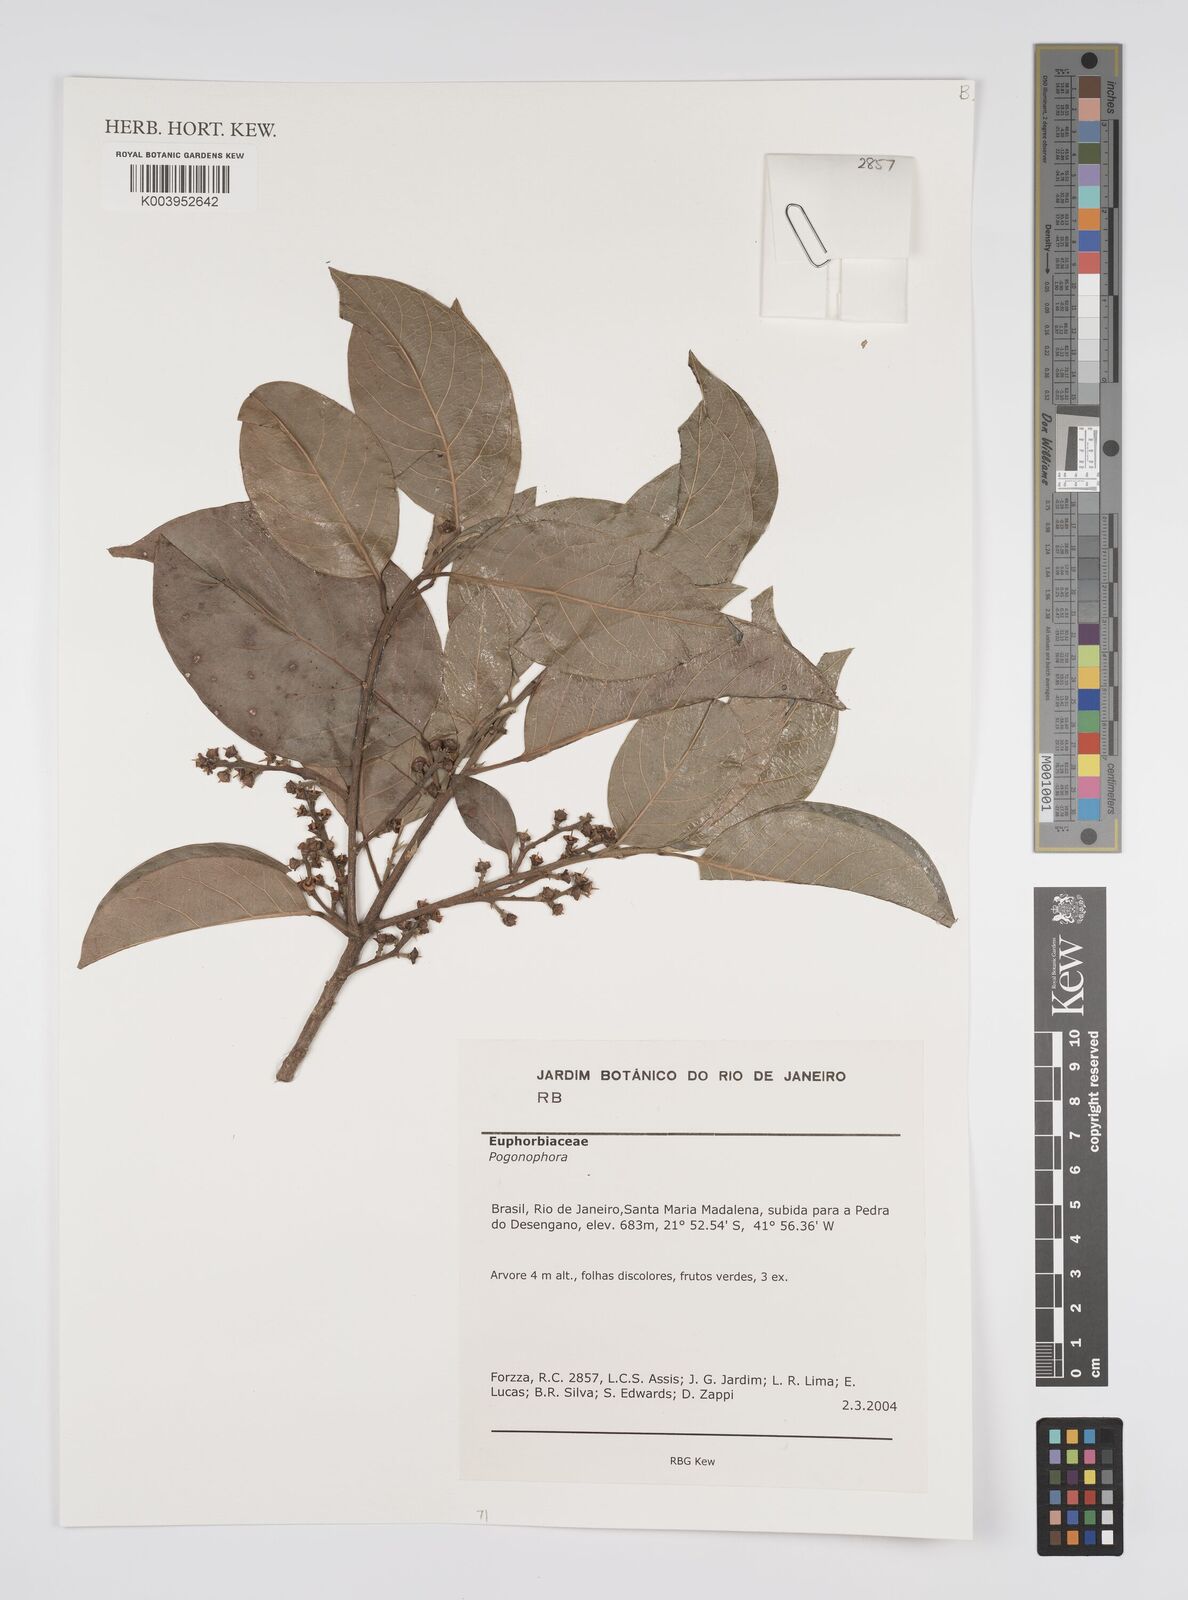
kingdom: Plantae
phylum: Tracheophyta
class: Magnoliopsida
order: Malpighiales
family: Peraceae
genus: Pogonophora
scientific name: Pogonophora
